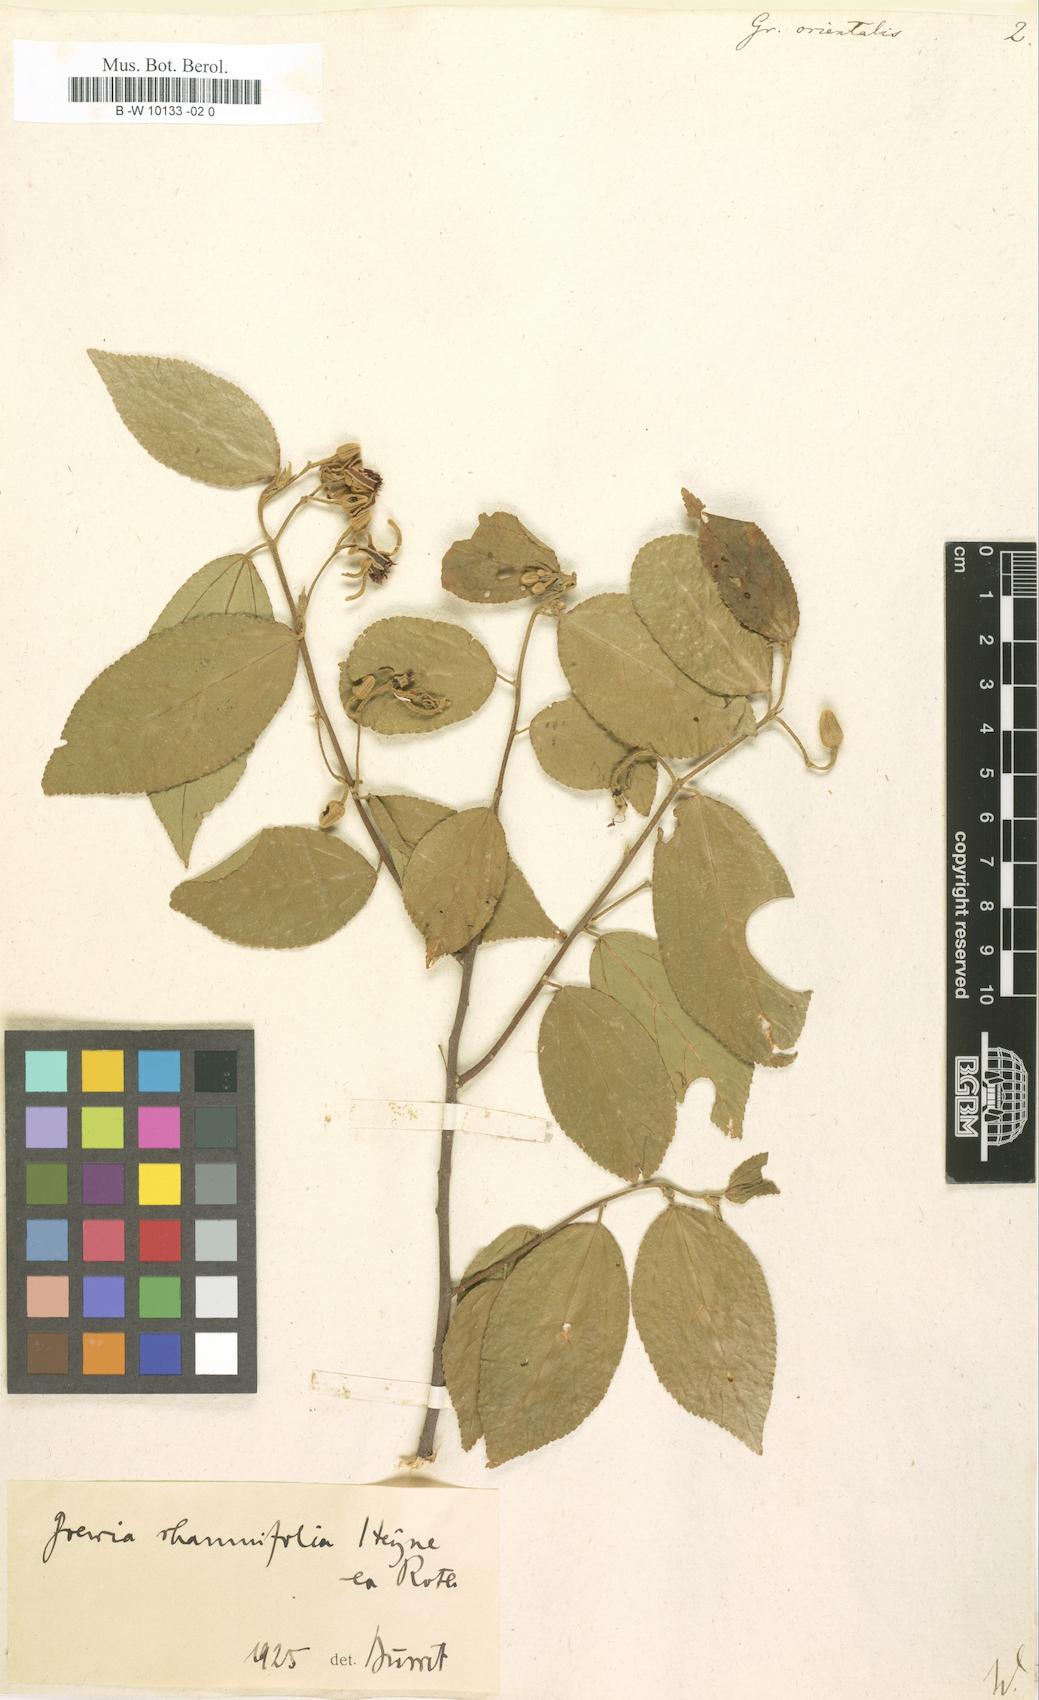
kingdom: Plantae
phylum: Tracheophyta
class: Magnoliopsida
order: Malvales
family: Malvaceae
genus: Grewia
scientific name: Grewia orientalis
